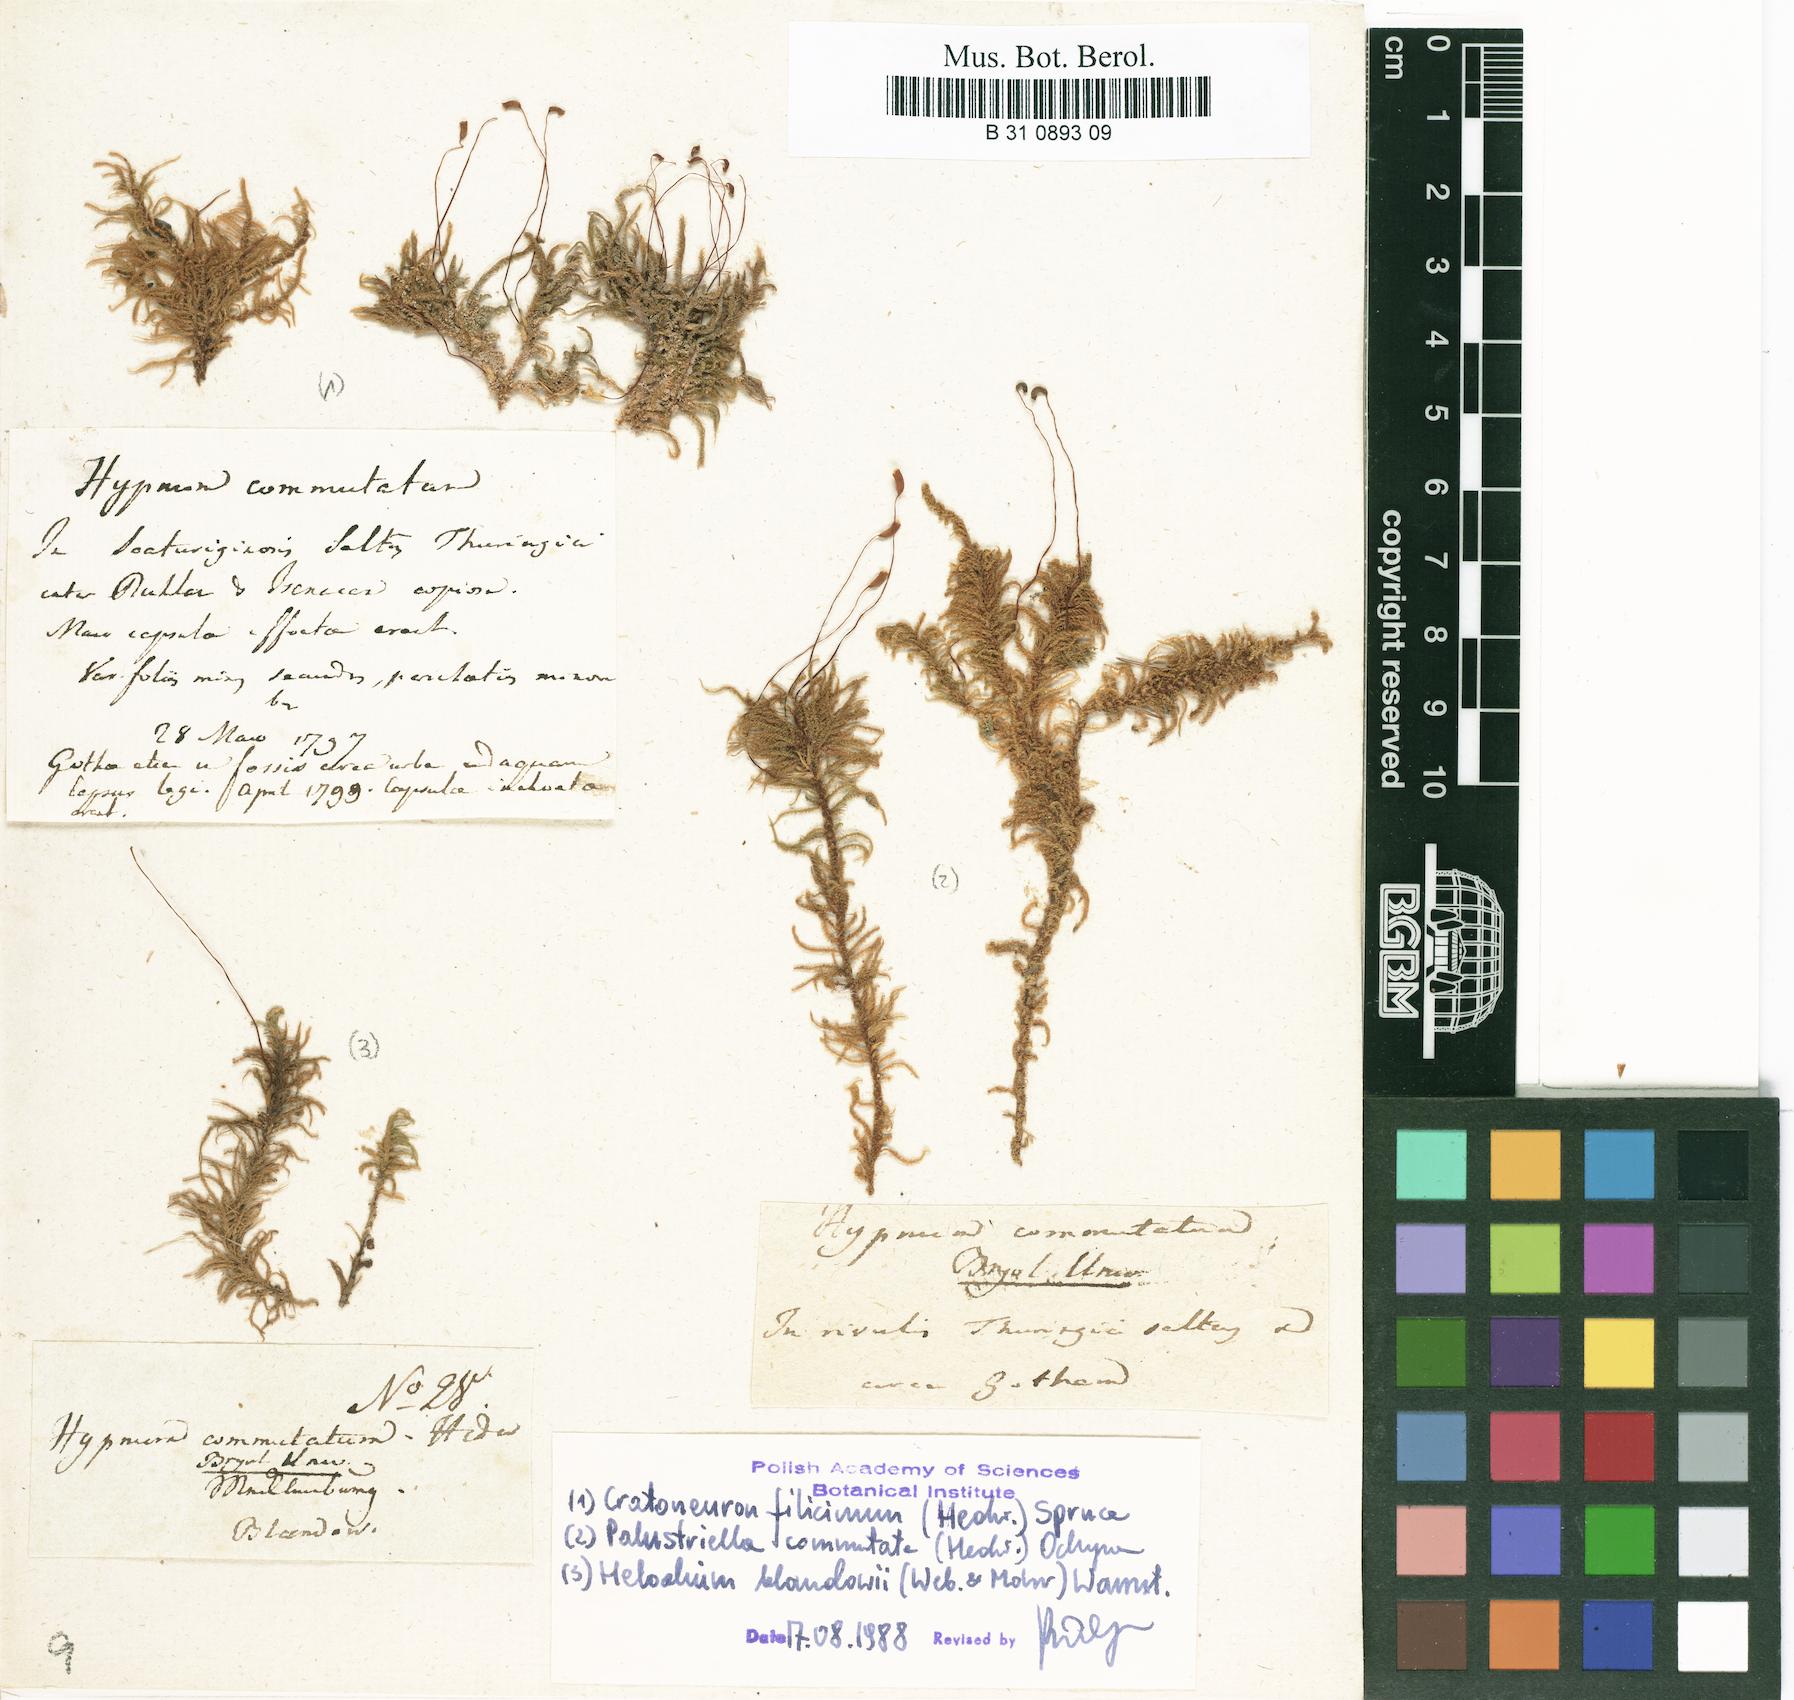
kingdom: Plantae
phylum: Bryophyta
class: Bryopsida
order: Hypnales
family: Amblystegiaceae
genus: Palustriella
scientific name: Palustriella commutata
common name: Curled hook-moss
